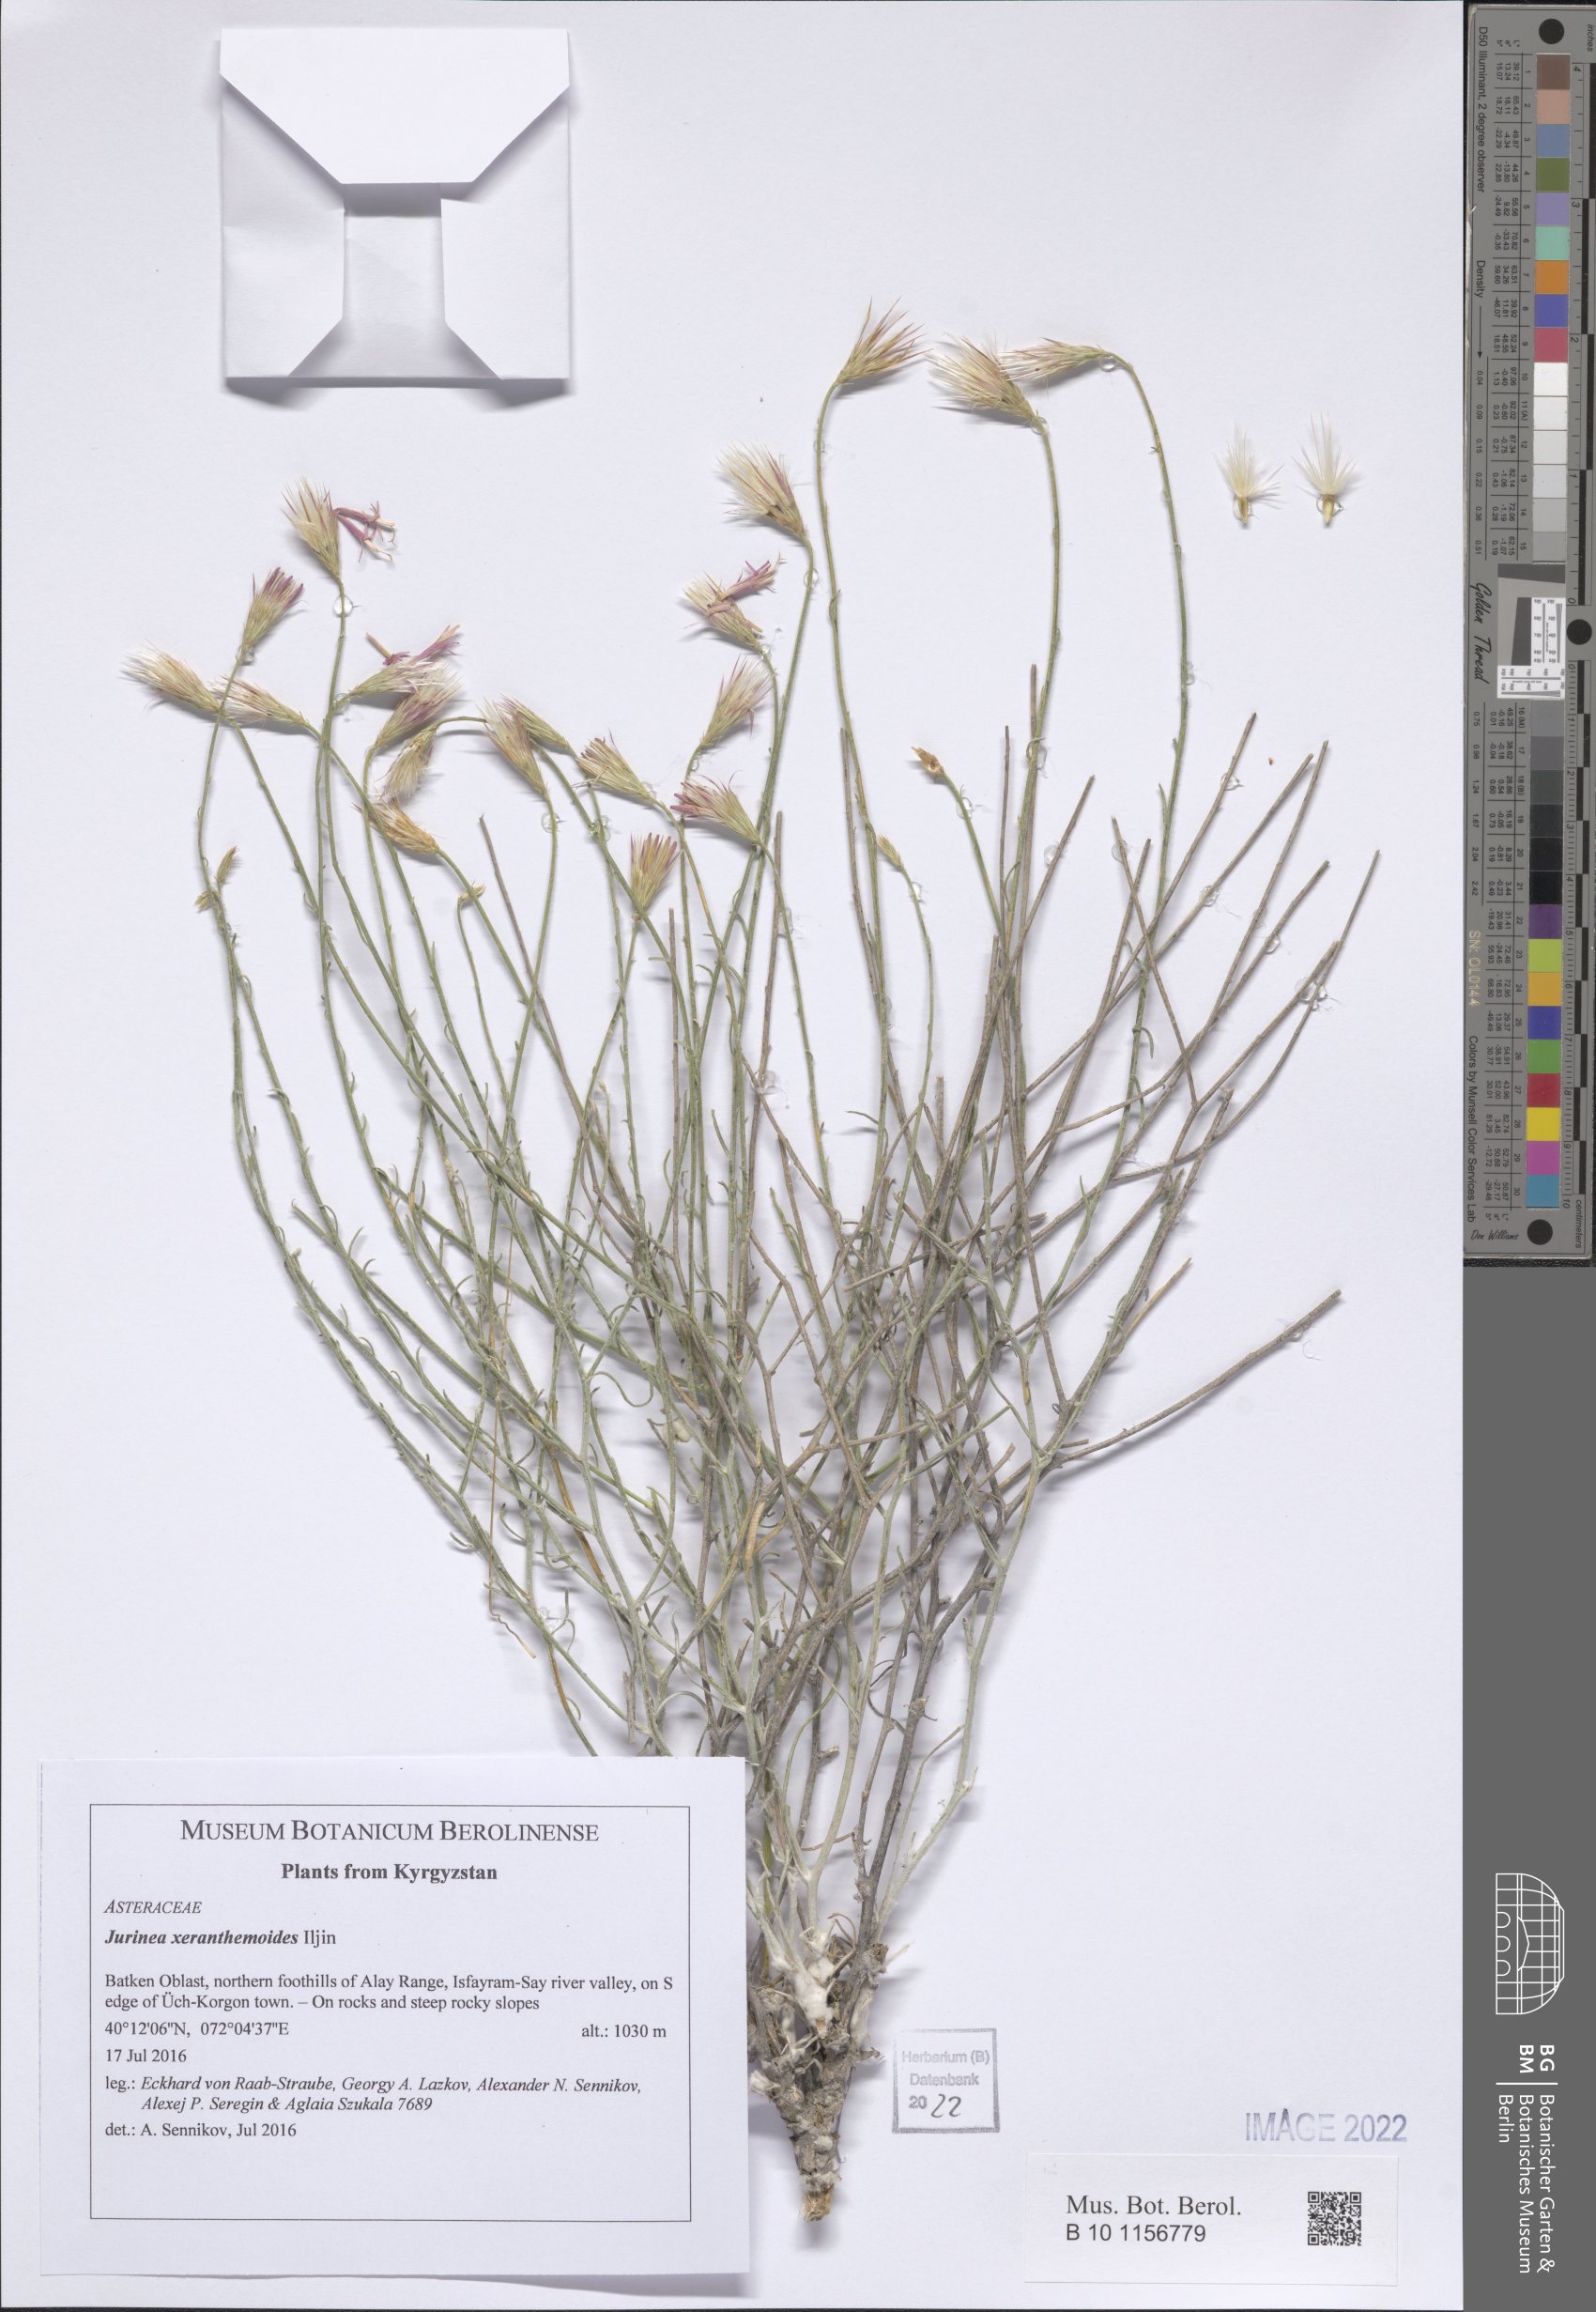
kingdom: Plantae
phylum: Tracheophyta
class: Magnoliopsida
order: Asterales
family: Asteraceae
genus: Jurinea
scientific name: Jurinea xeranthemoides
